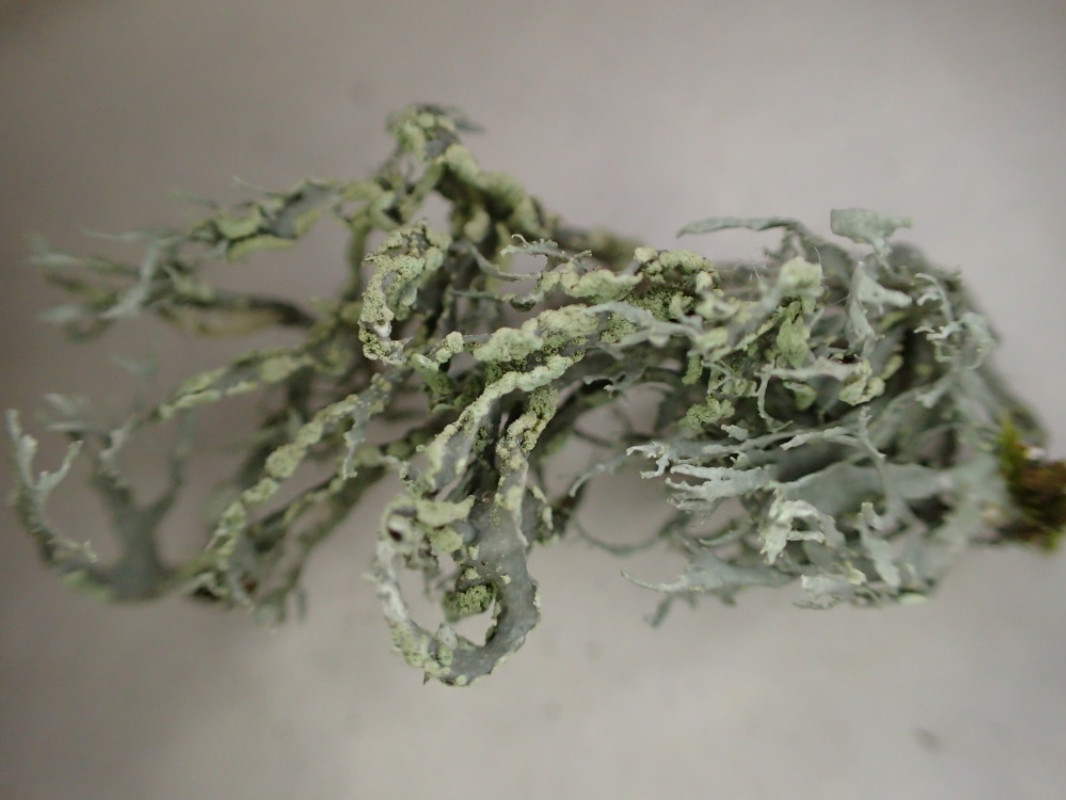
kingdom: Fungi
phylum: Ascomycota
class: Lecanoromycetes
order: Lecanorales
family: Ramalinaceae
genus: Ramalina
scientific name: Ramalina farinacea
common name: melet grenlav
